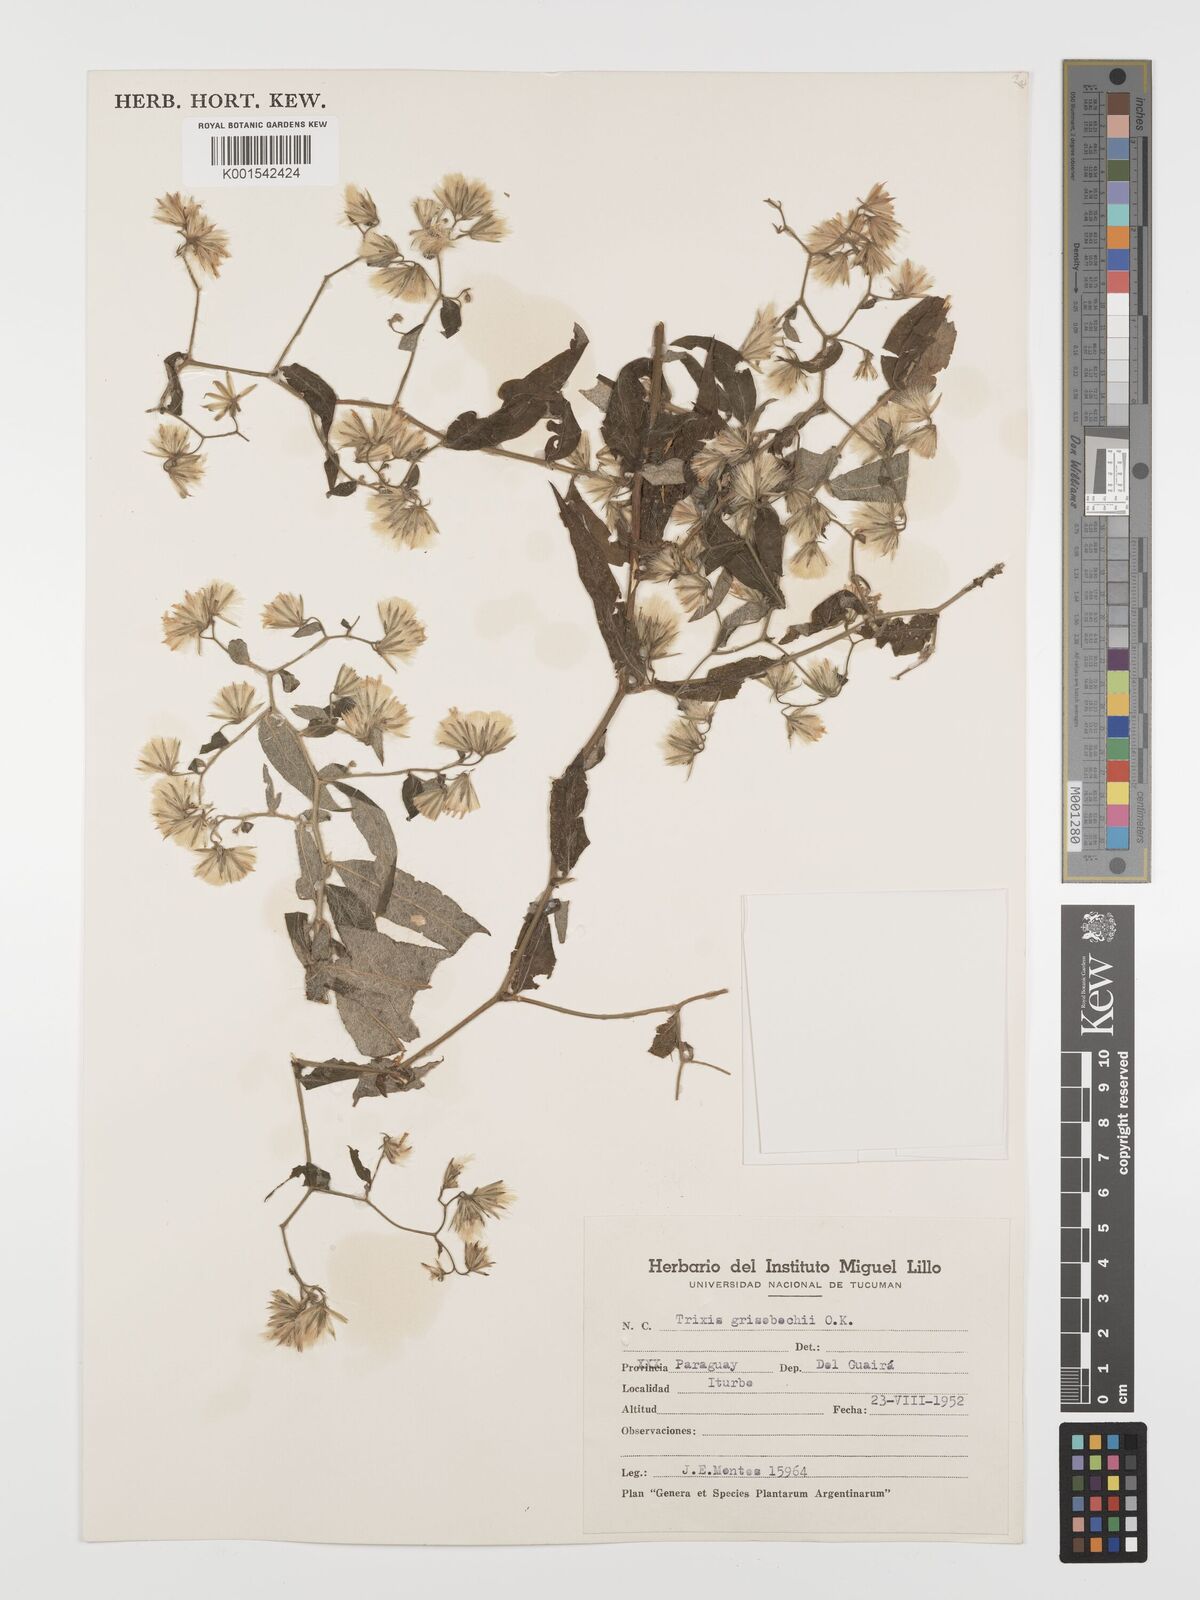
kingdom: Plantae
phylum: Tracheophyta
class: Magnoliopsida
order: Asterales
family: Asteraceae
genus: Trixis
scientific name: Trixis grisebachii
